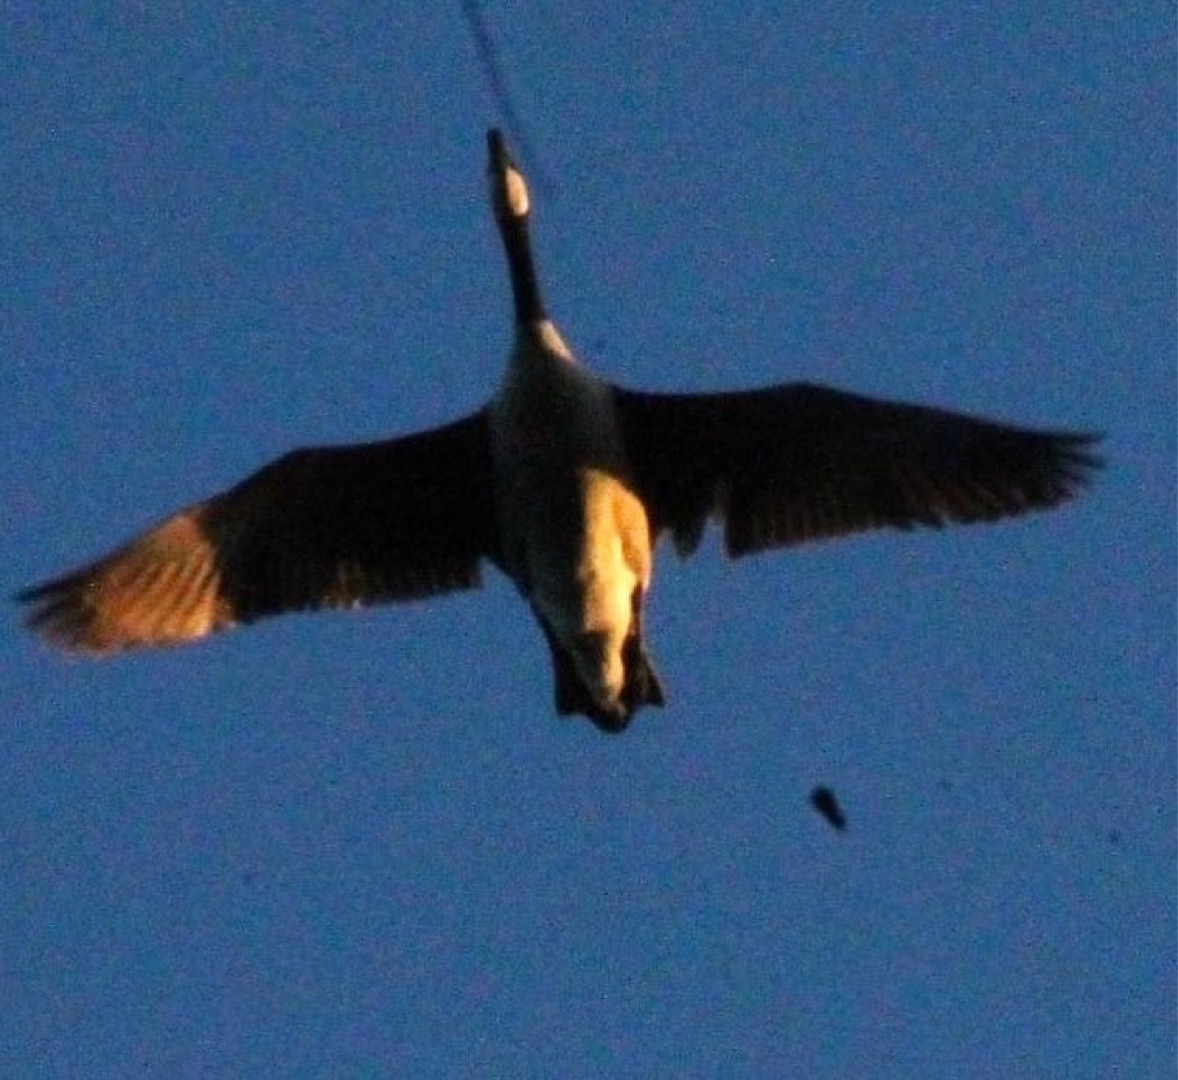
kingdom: Animalia
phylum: Chordata
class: Aves
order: Anseriformes
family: Anatidae
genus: Branta
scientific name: Branta canadensis
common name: Canadagås
